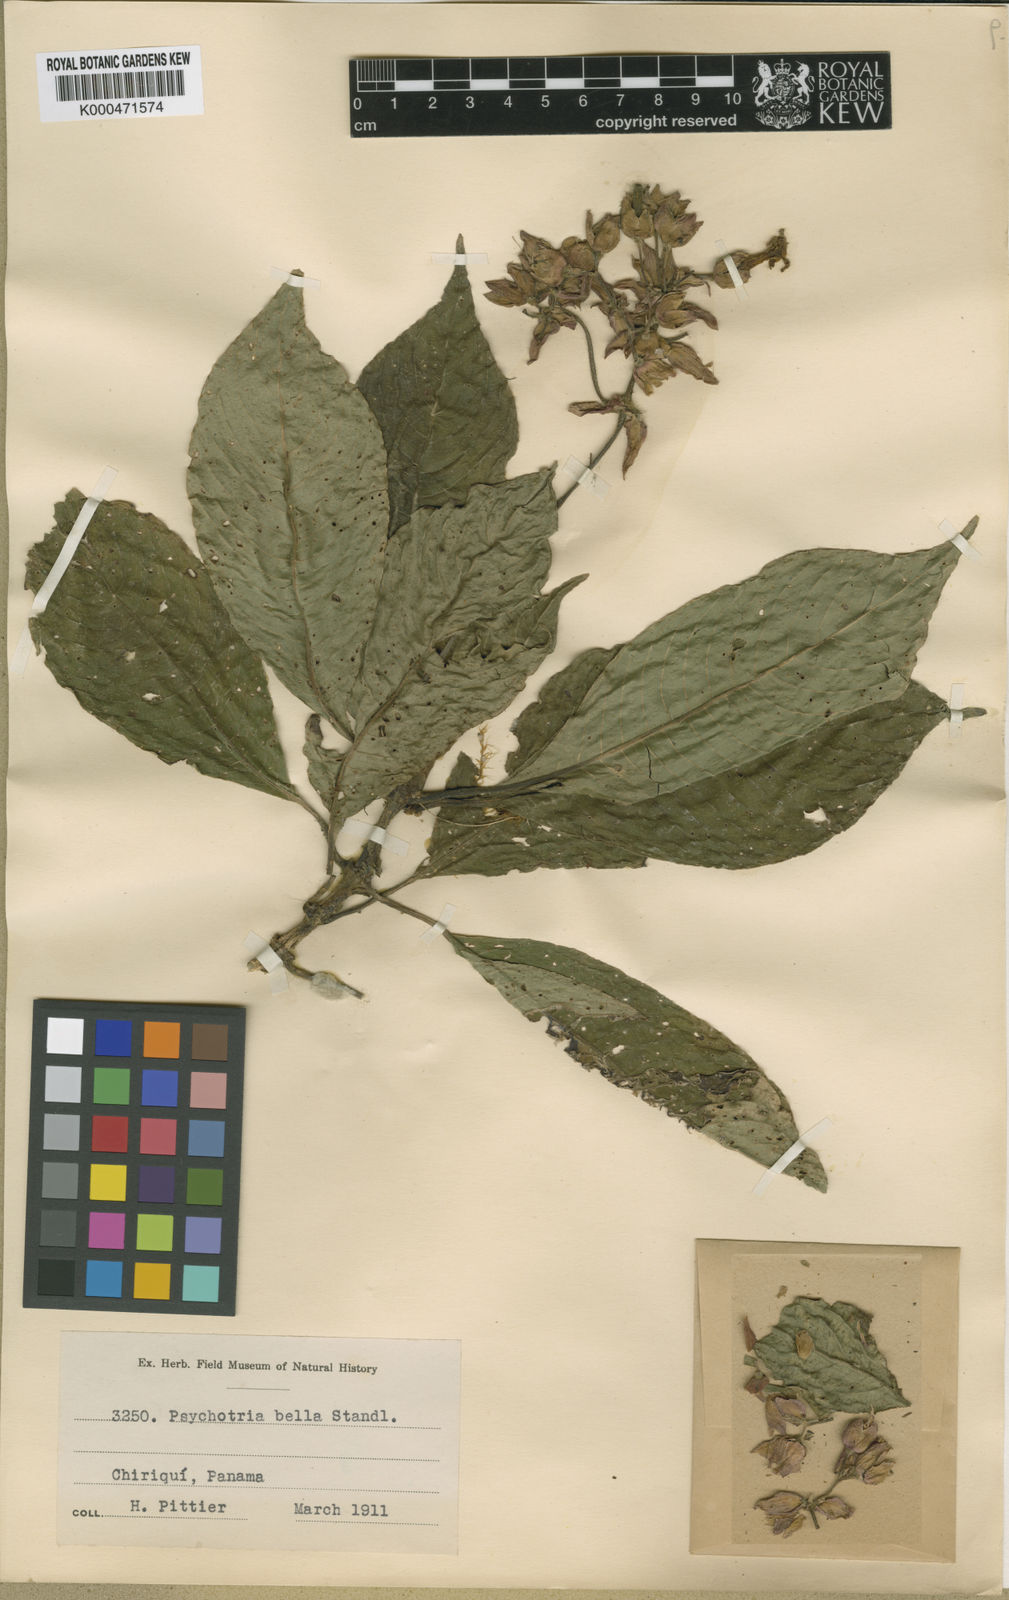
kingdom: Plantae
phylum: Tracheophyta
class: Magnoliopsida
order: Gentianales
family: Rubiaceae
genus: Palicourea
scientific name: Palicourea bella
